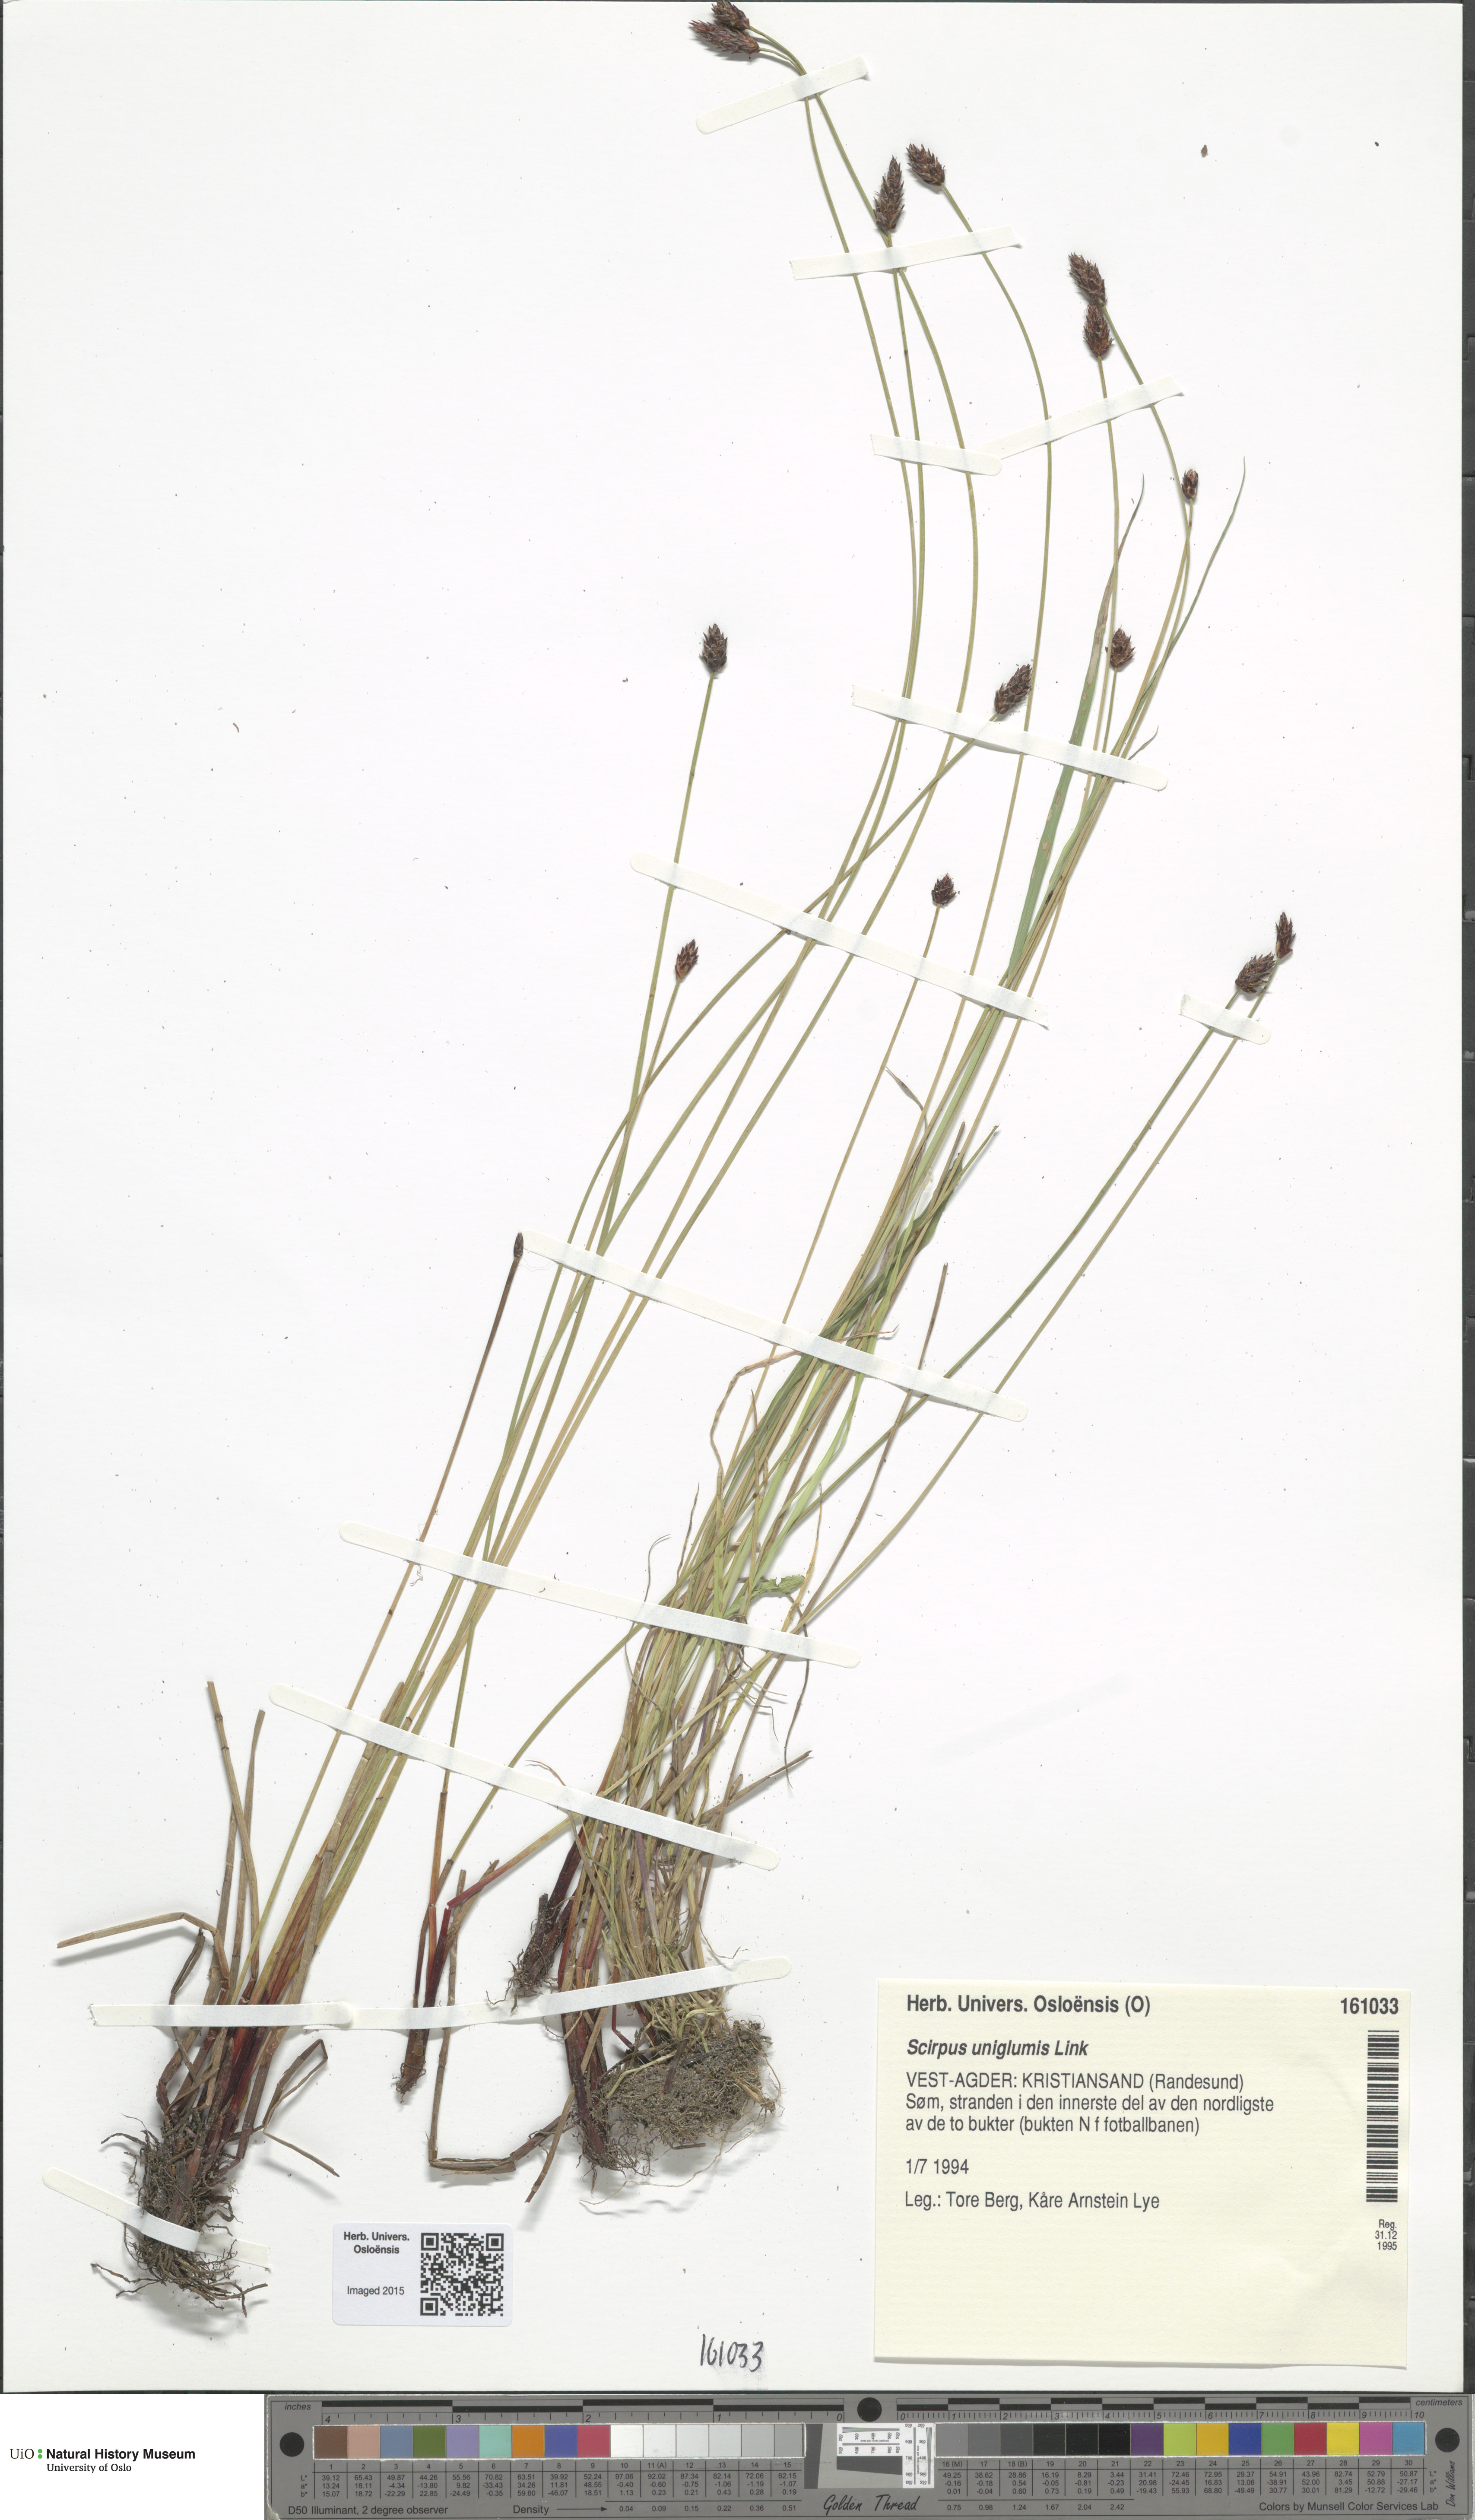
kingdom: Plantae
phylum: Tracheophyta
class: Liliopsida
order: Poales
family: Cyperaceae
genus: Eleocharis
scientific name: Eleocharis uniglumis
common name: Slender spike-rush
